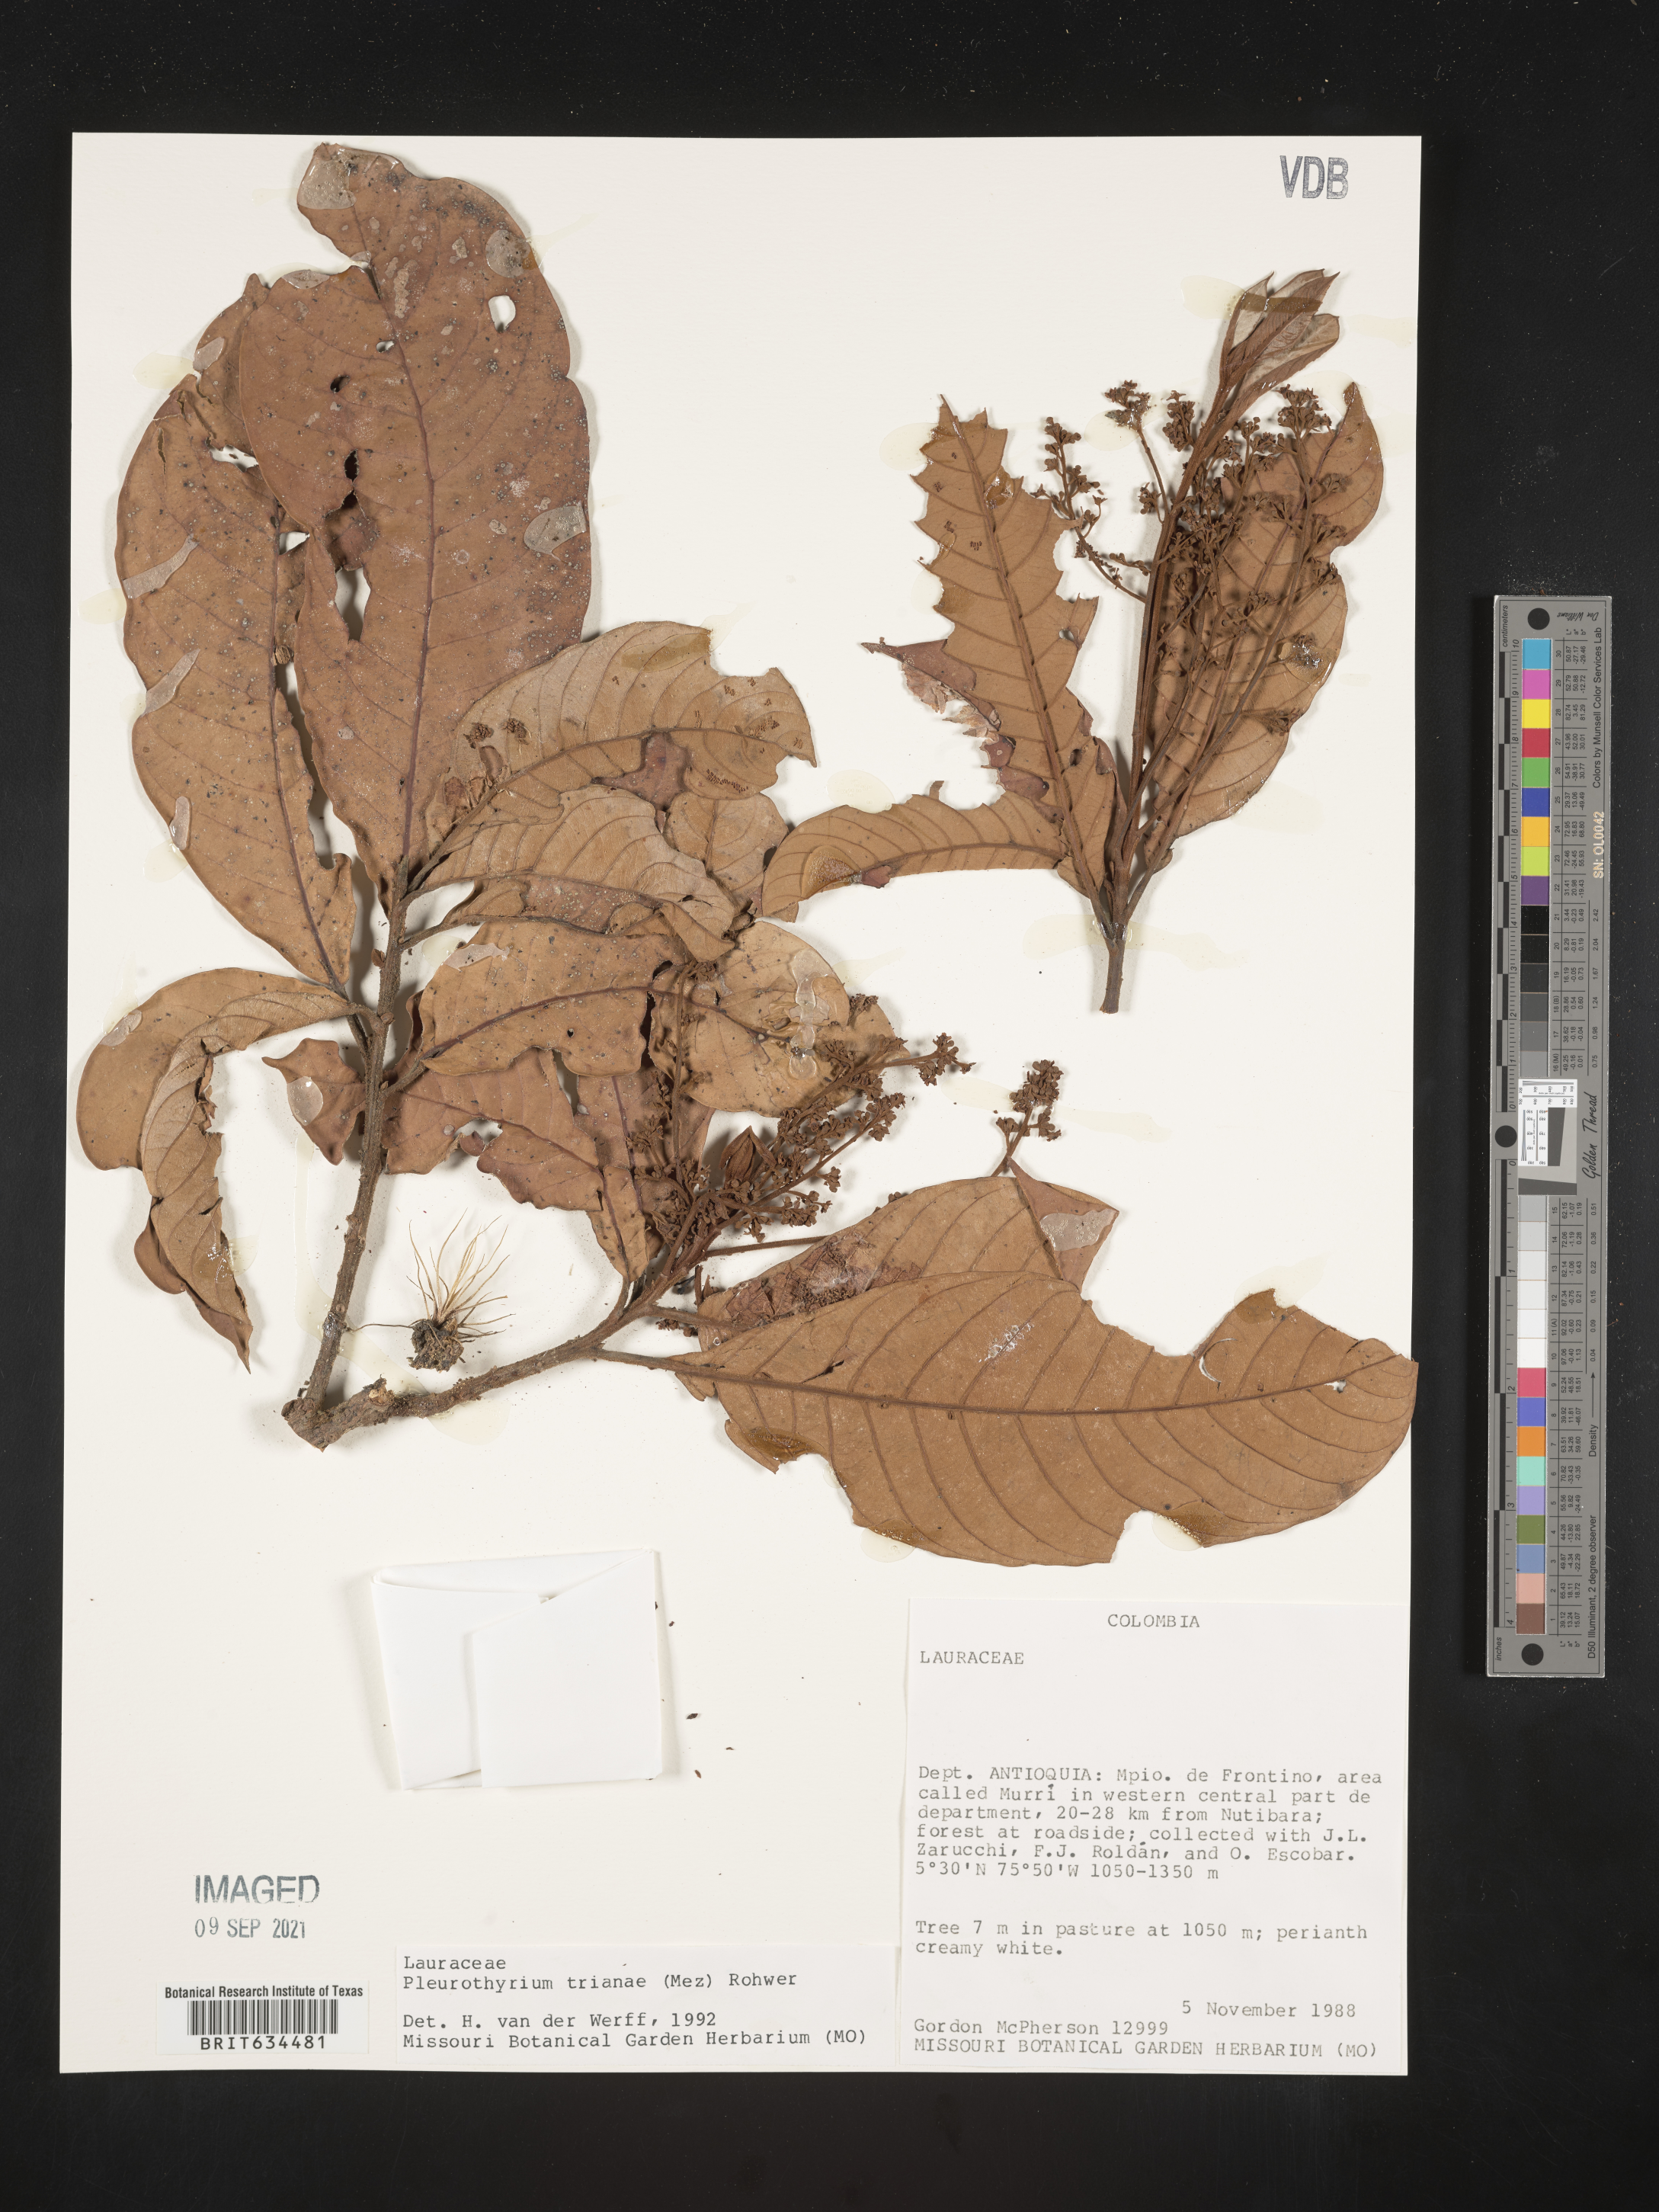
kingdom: Plantae
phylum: Tracheophyta
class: Magnoliopsida
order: Laurales
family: Lauraceae
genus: Pleurothyrium
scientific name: Pleurothyrium
